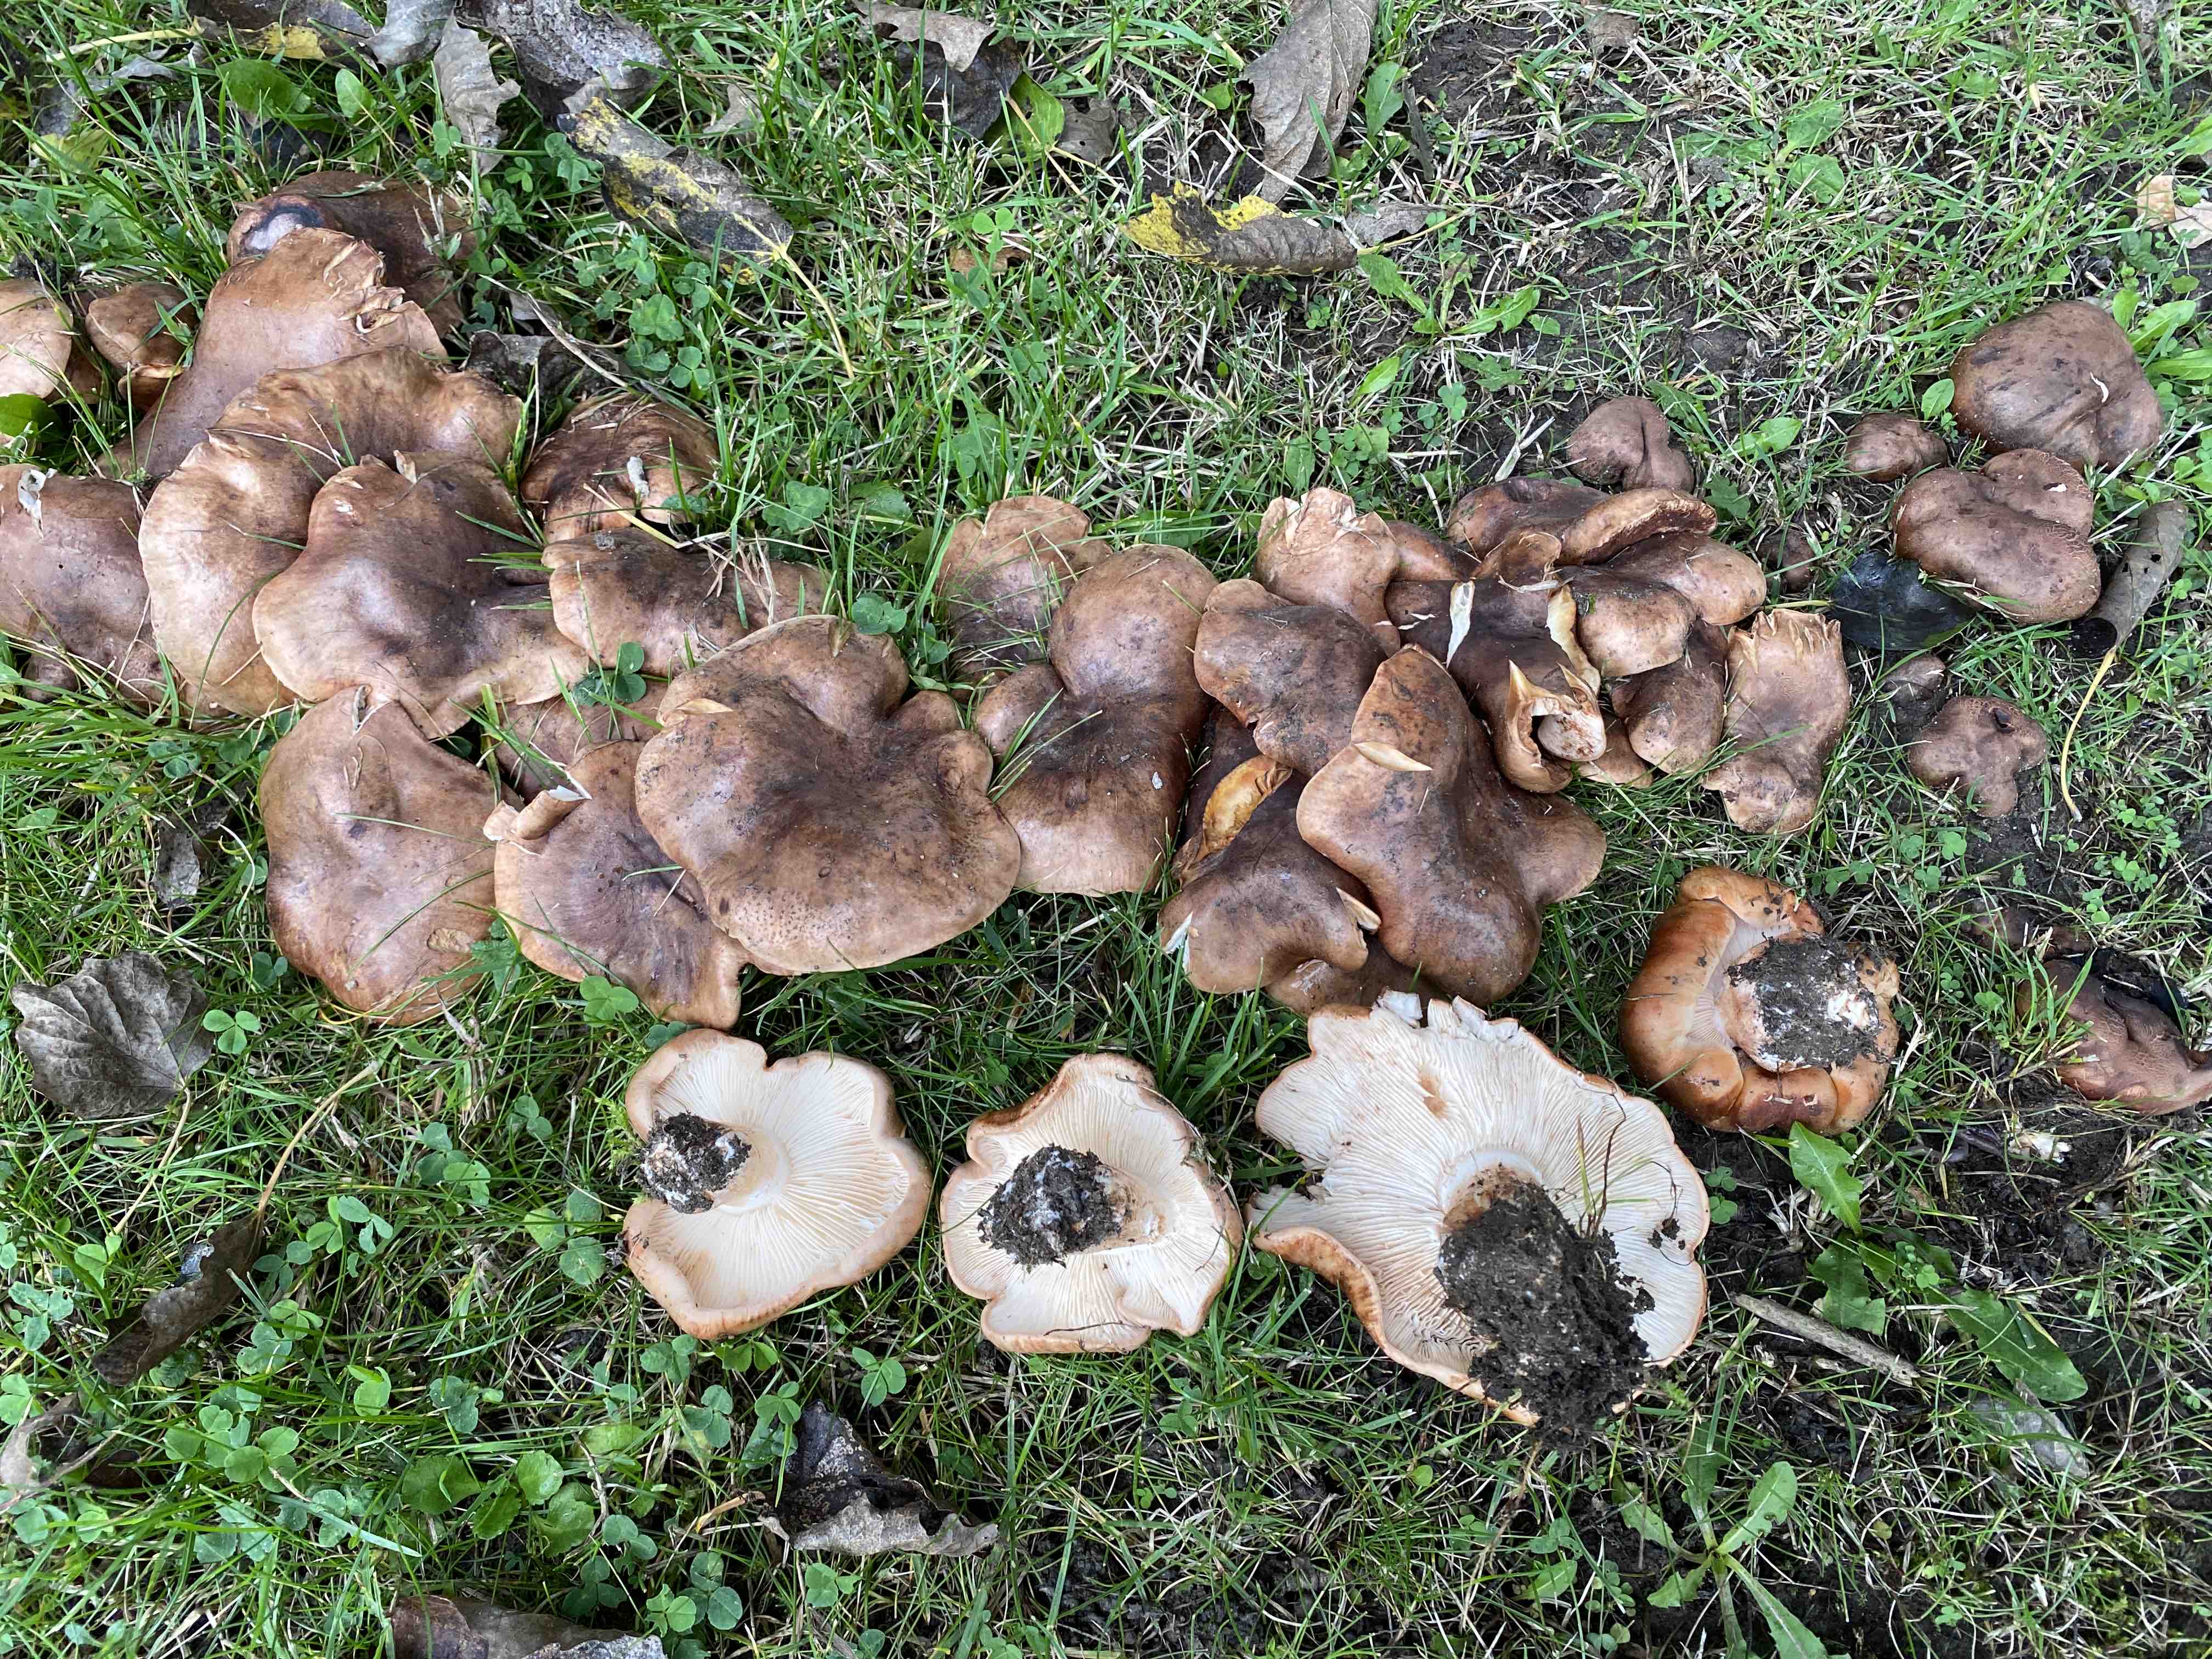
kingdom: Fungi
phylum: Basidiomycota
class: Agaricomycetes
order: Agaricales
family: Tricholomataceae
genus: Tricholoma
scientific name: Tricholoma populinum
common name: poppel-ridderhat
